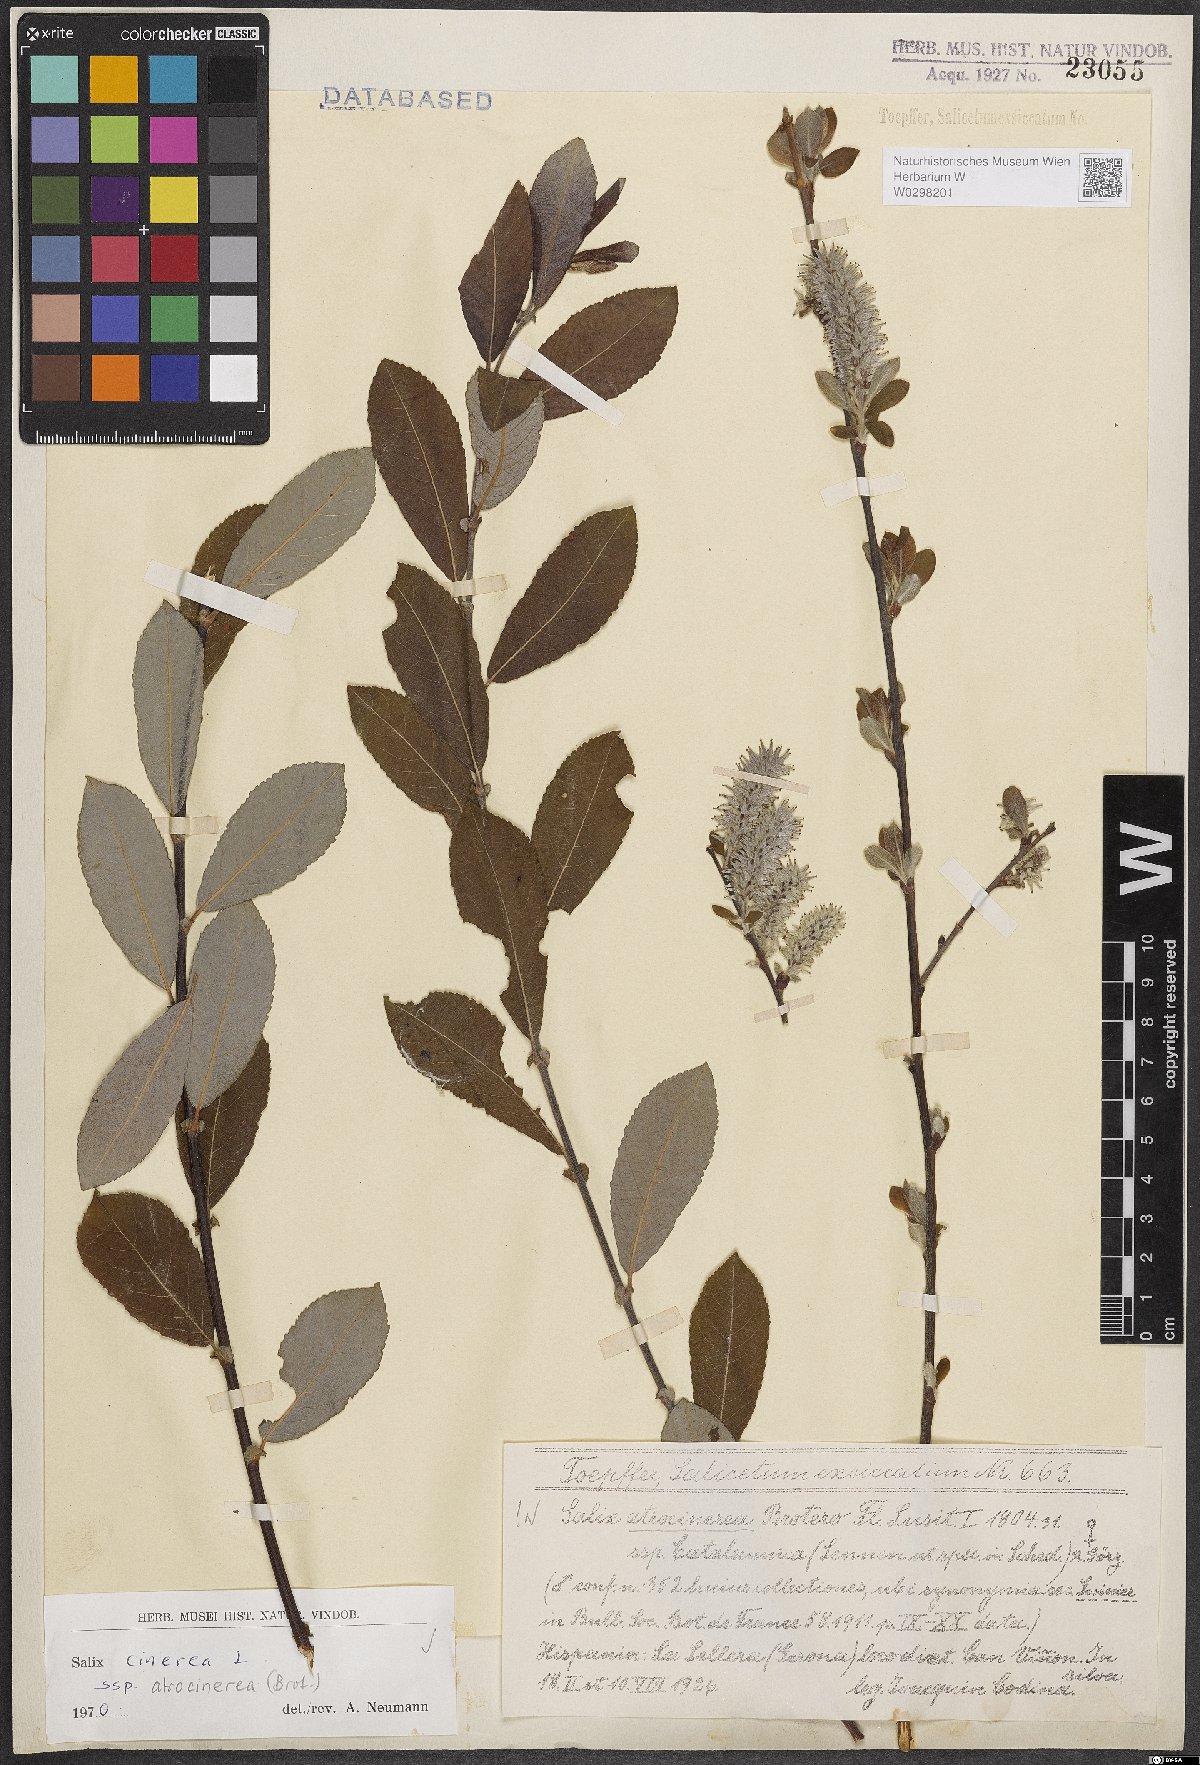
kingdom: Plantae
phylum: Tracheophyta
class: Magnoliopsida
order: Malpighiales
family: Salicaceae
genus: Salix
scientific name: Salix atrocinerea
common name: Rusty willow
